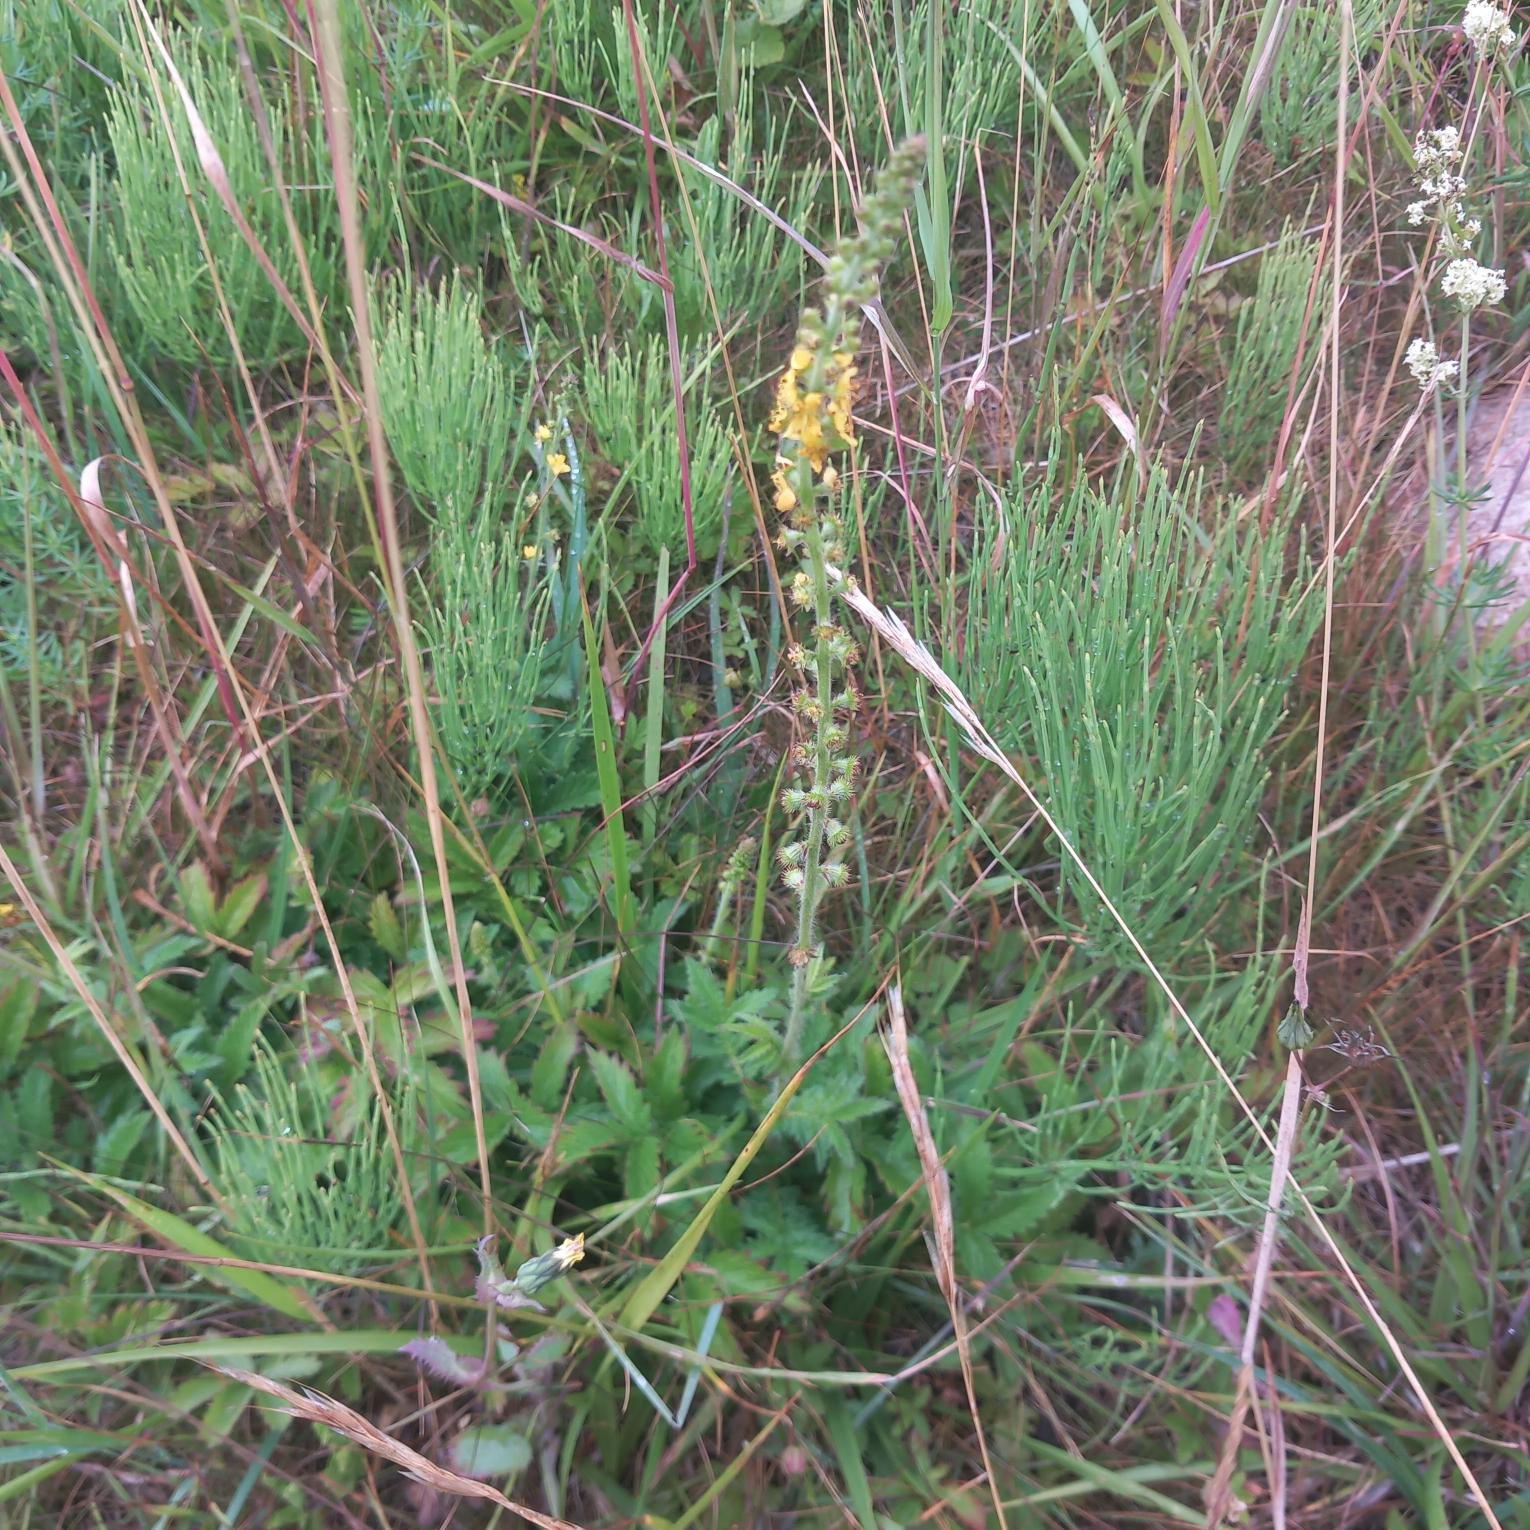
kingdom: Plantae
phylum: Tracheophyta
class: Magnoliopsida
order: Rosales
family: Rosaceae
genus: Agrimonia
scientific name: Agrimonia eupatoria
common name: Almindelig agermåne
